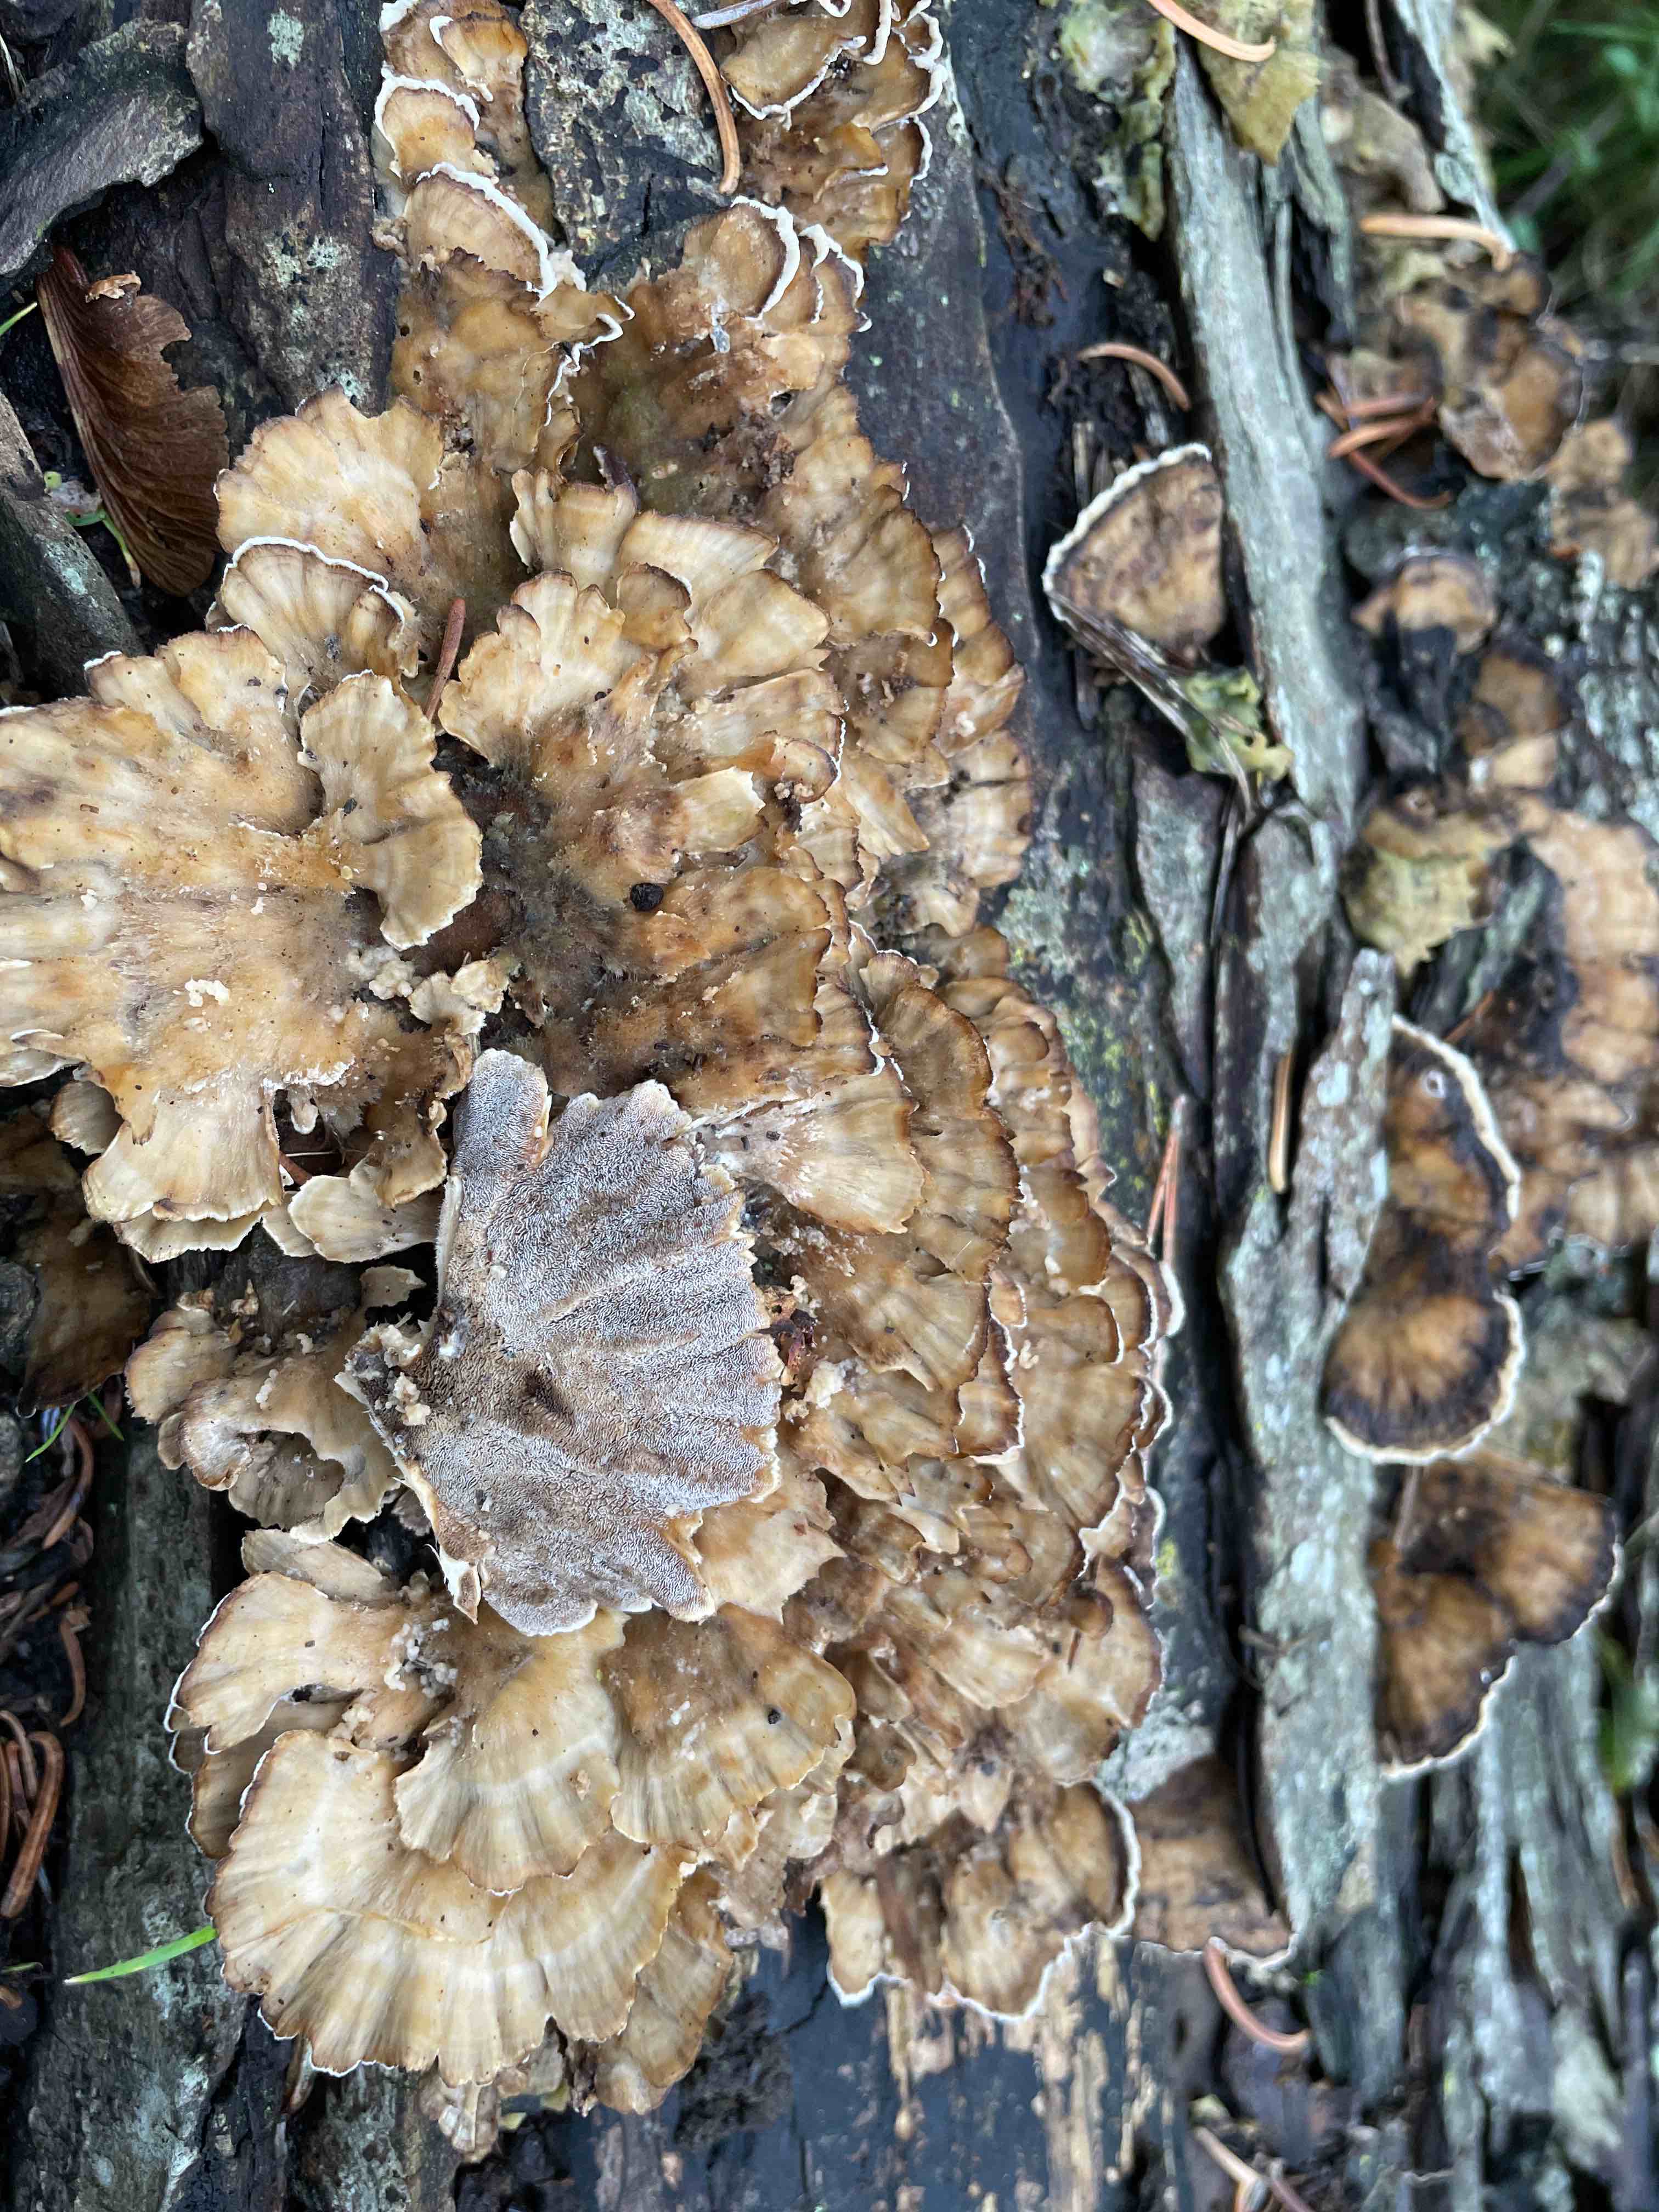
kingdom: Fungi
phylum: Basidiomycota
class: Agaricomycetes
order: Polyporales
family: Phanerochaetaceae
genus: Bjerkandera
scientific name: Bjerkandera adusta
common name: sveden sodporesvamp
